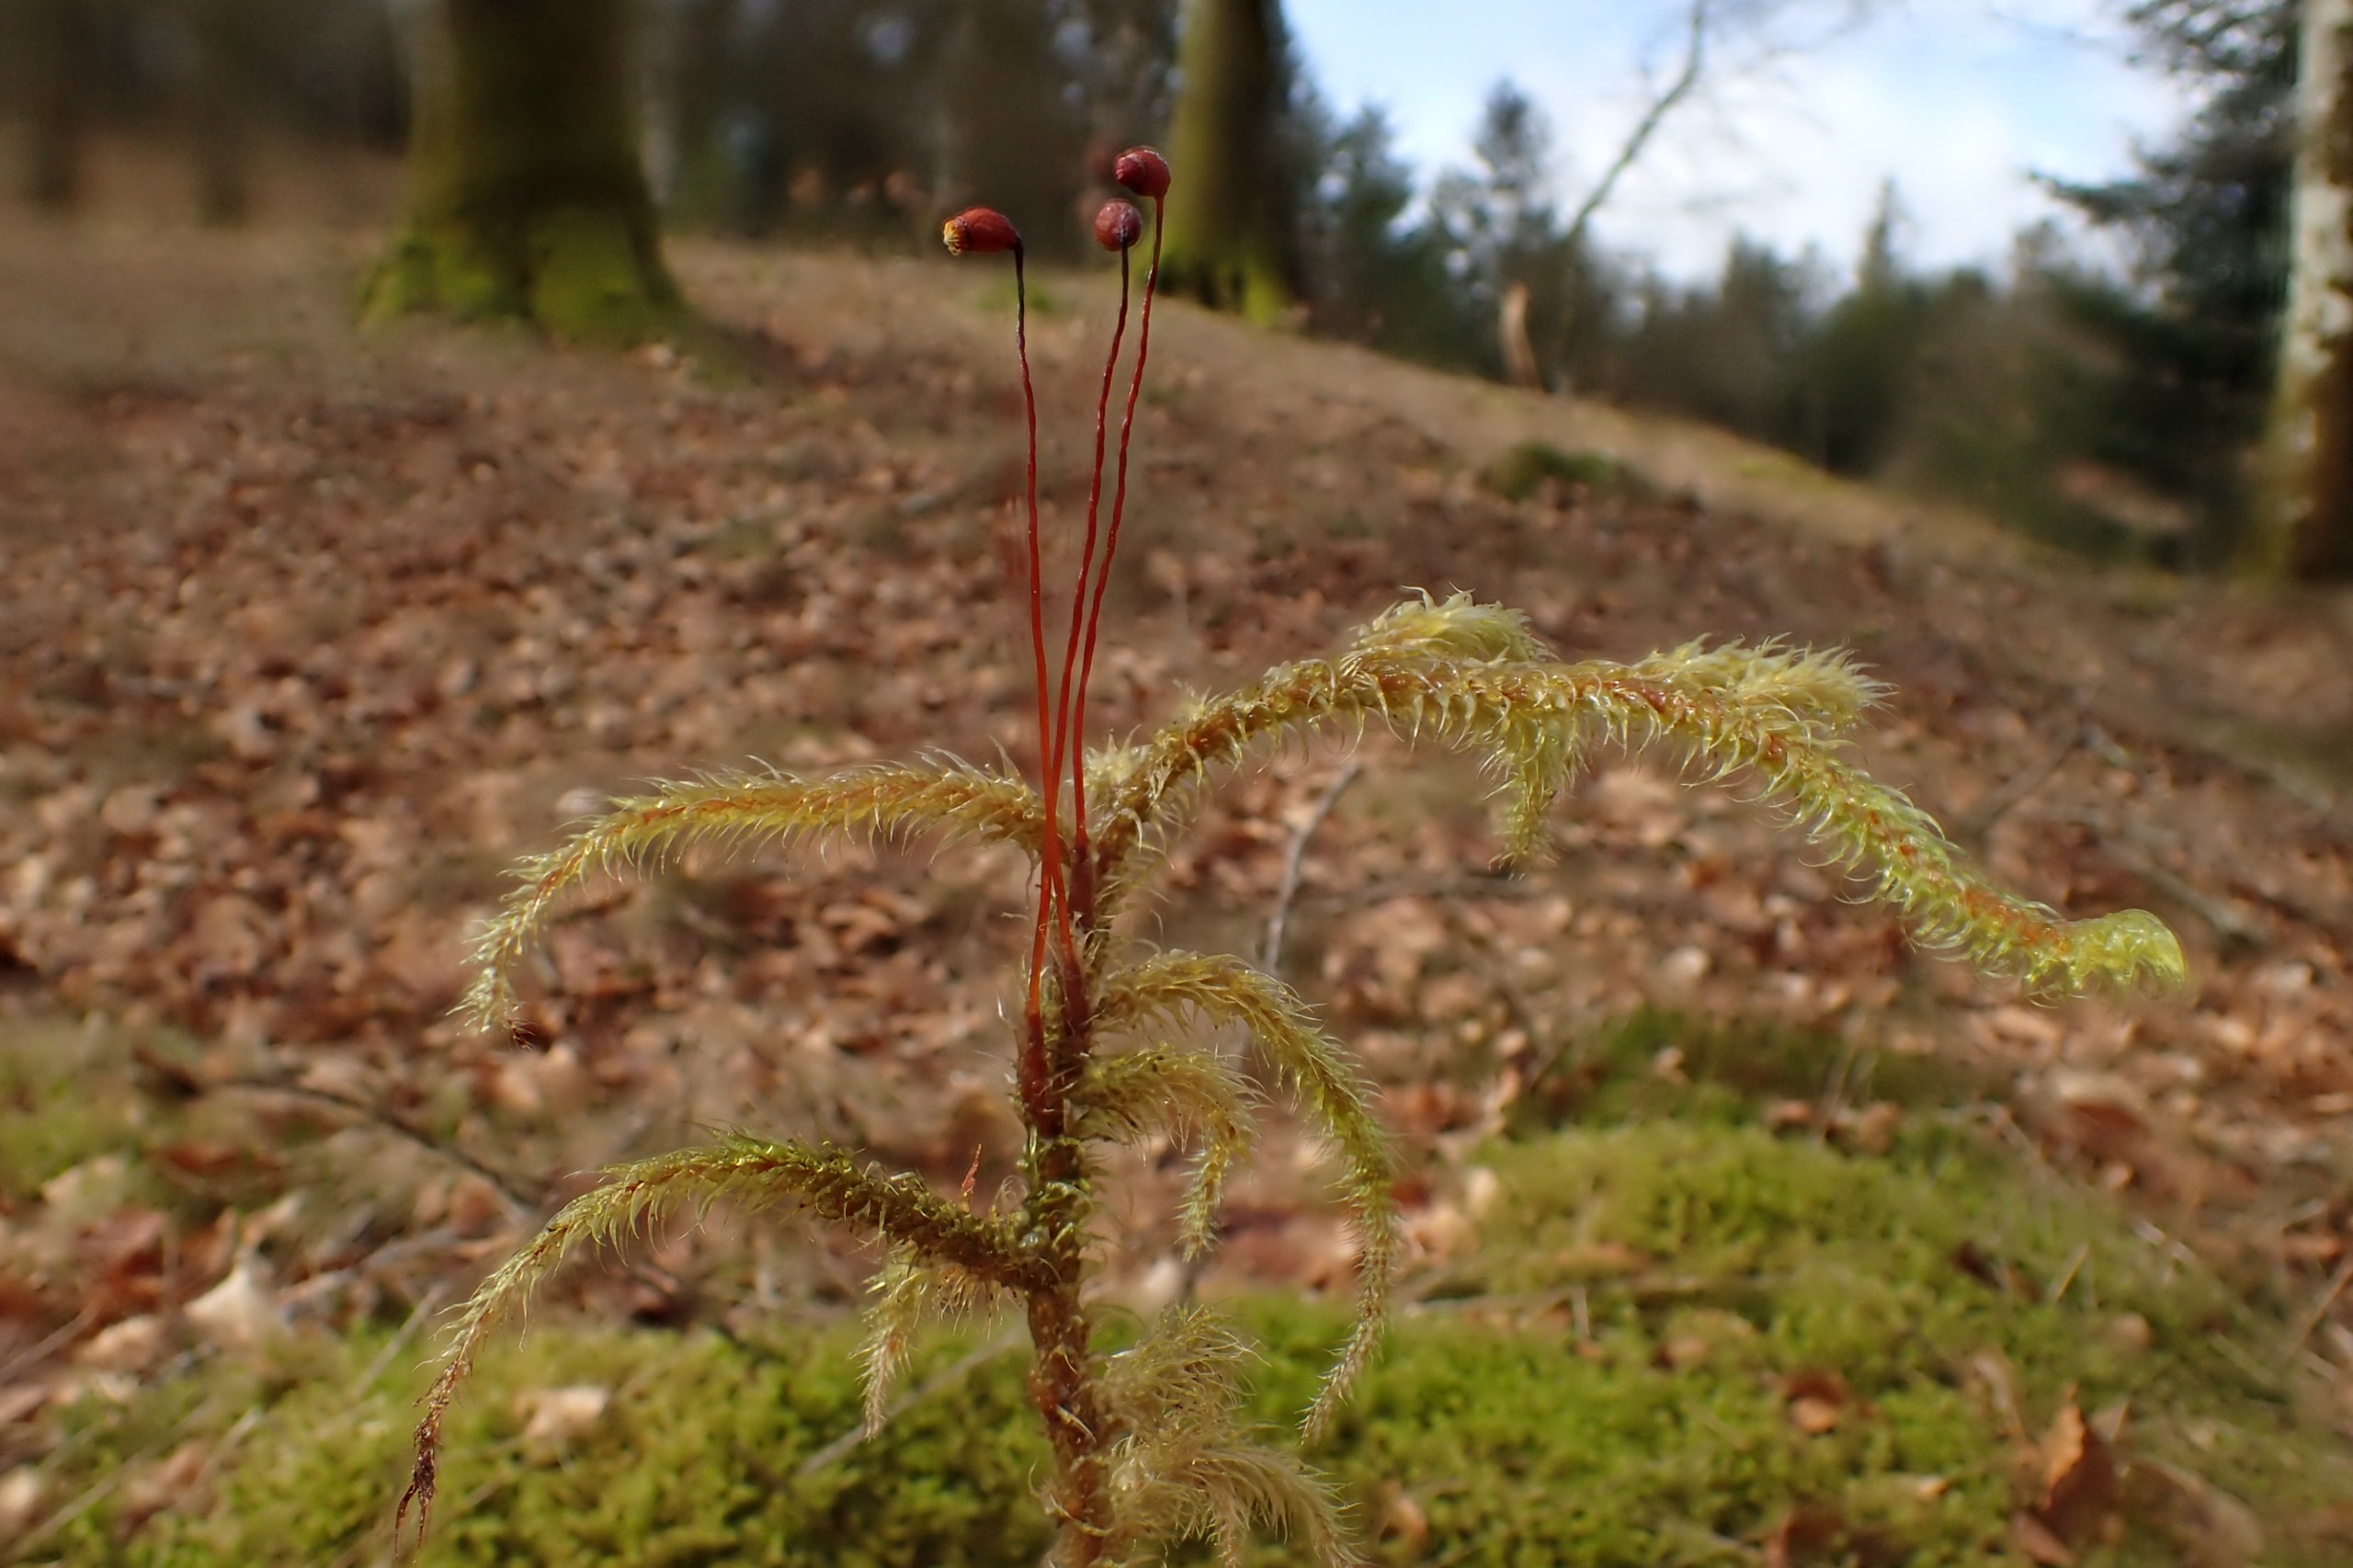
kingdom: Plantae
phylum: Bryophyta
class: Bryopsida
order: Hypnales
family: Hylocomiaceae
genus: Rhytidiadelphus
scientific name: Rhytidiadelphus loreus
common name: Ulvefod-kransemos
